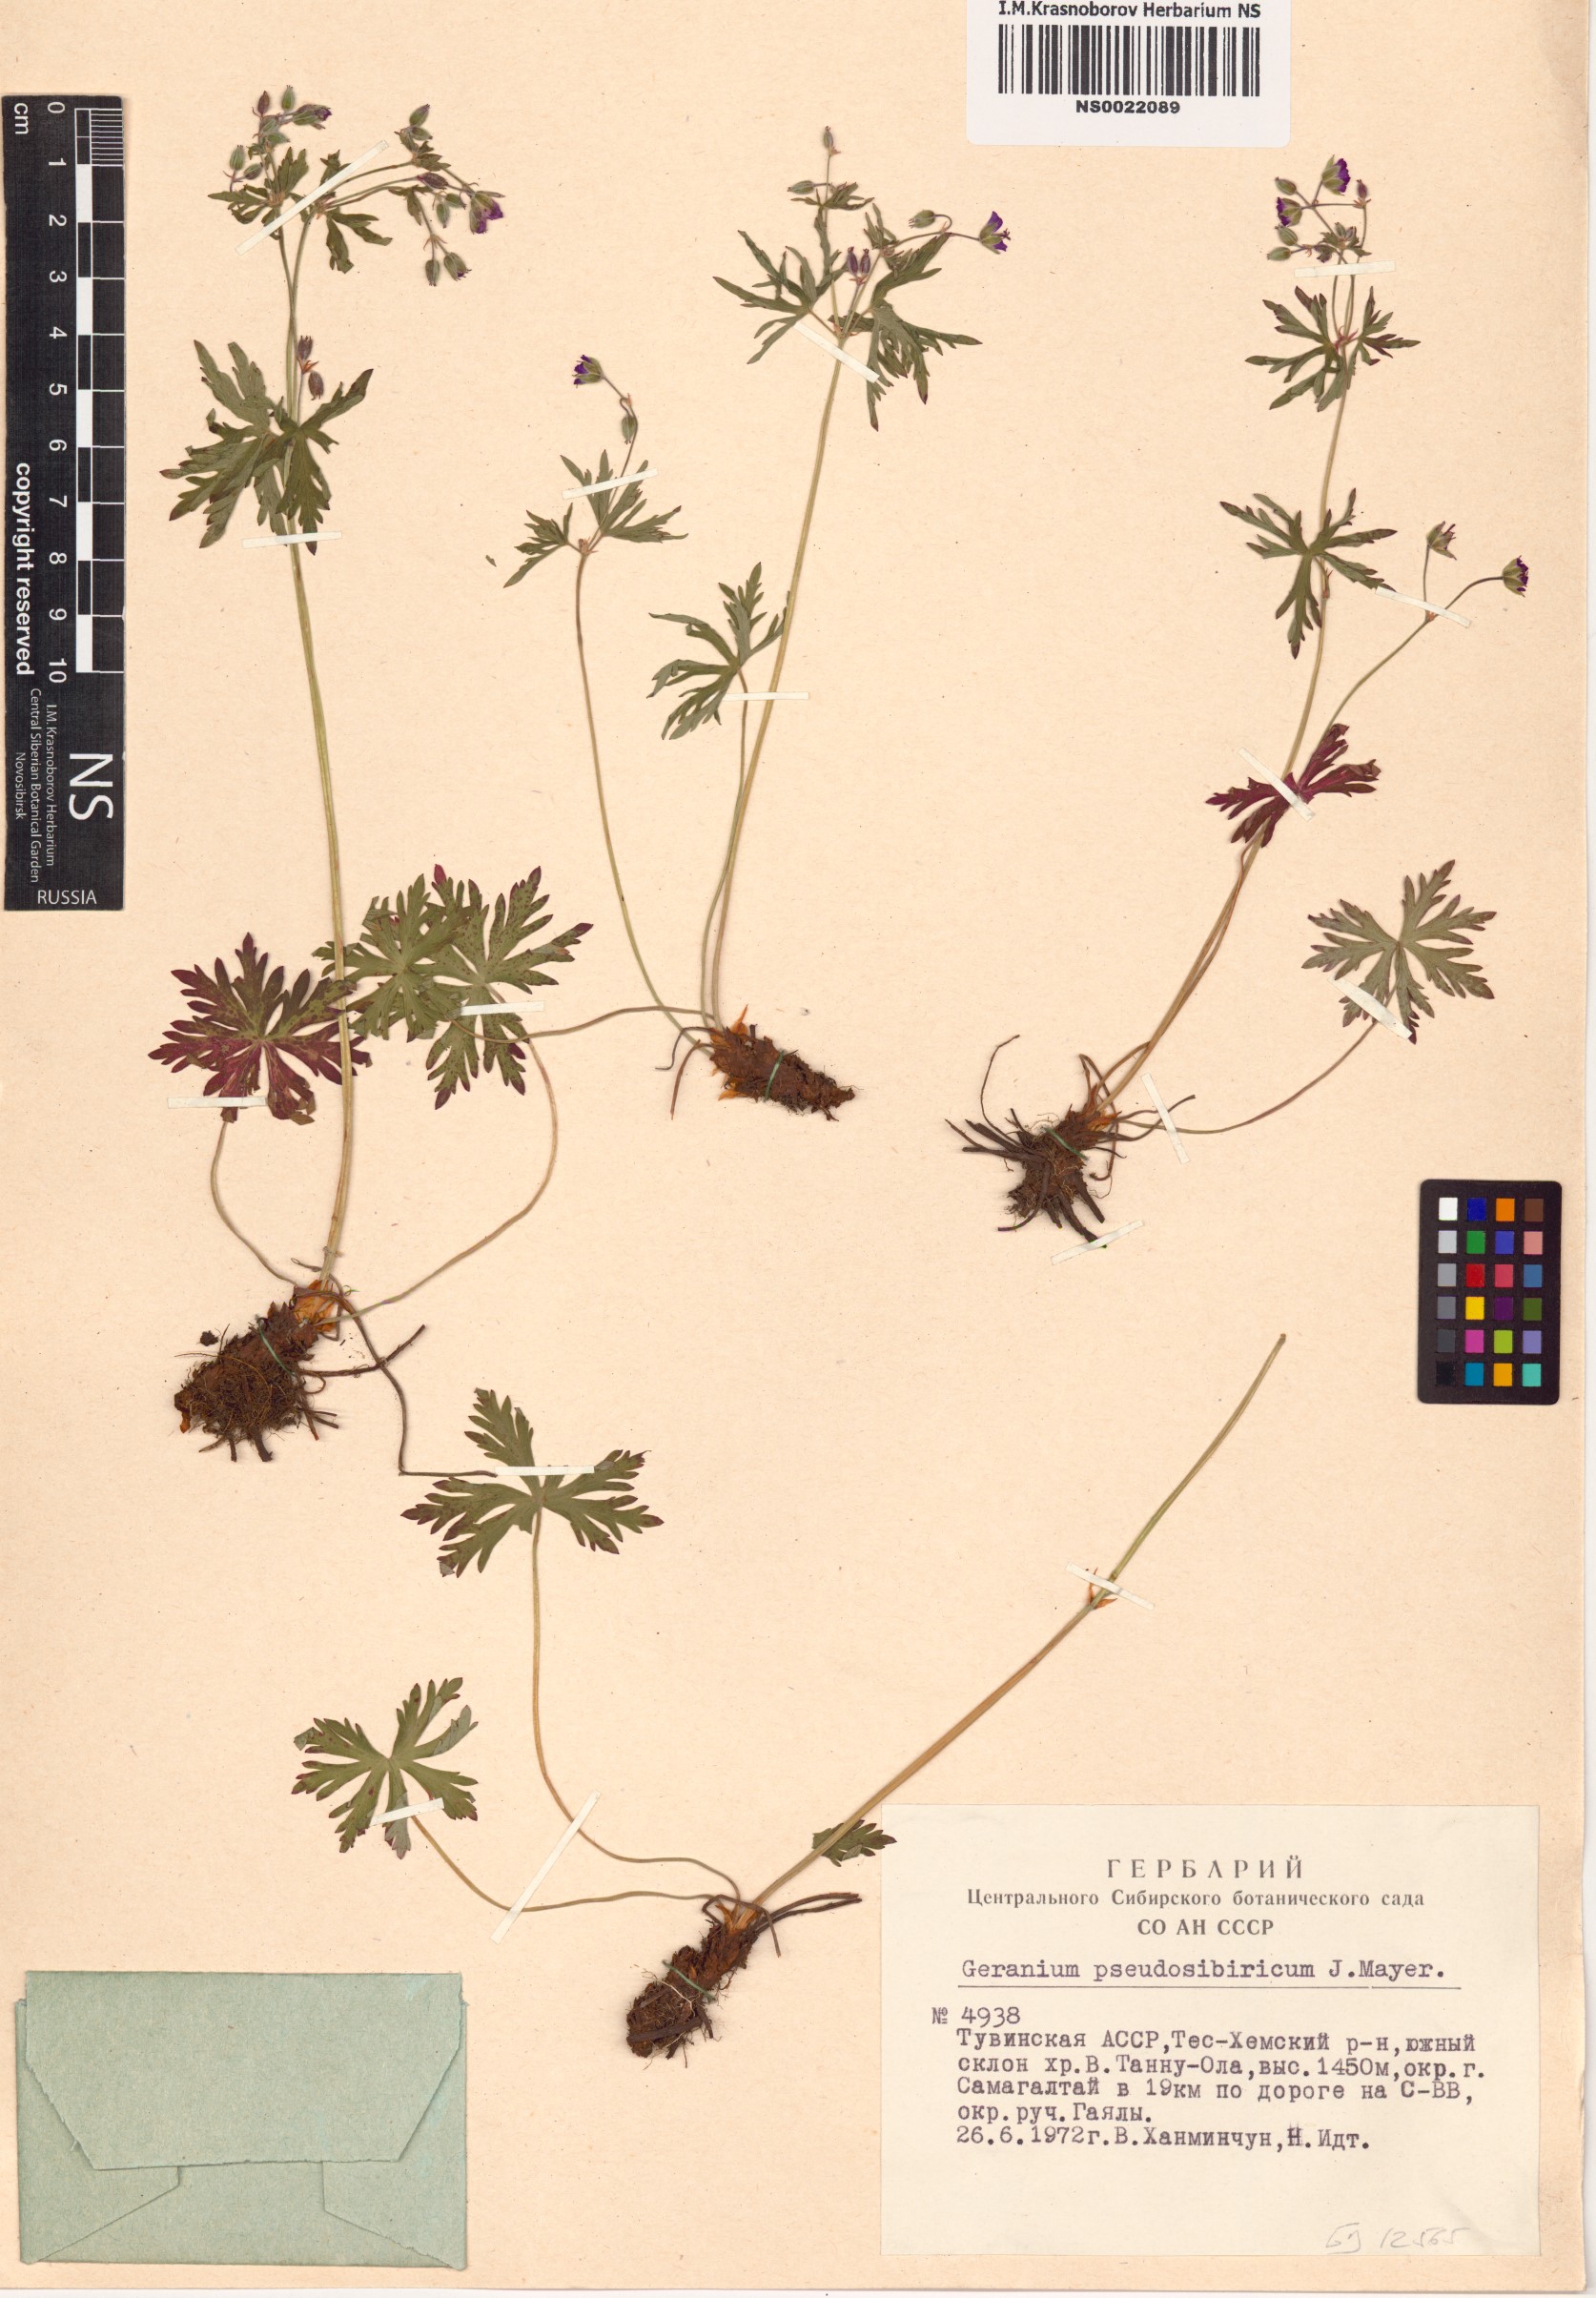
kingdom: Plantae
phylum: Tracheophyta
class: Magnoliopsida
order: Geraniales
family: Geraniaceae
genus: Geranium
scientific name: Geranium pseudosibiricum
